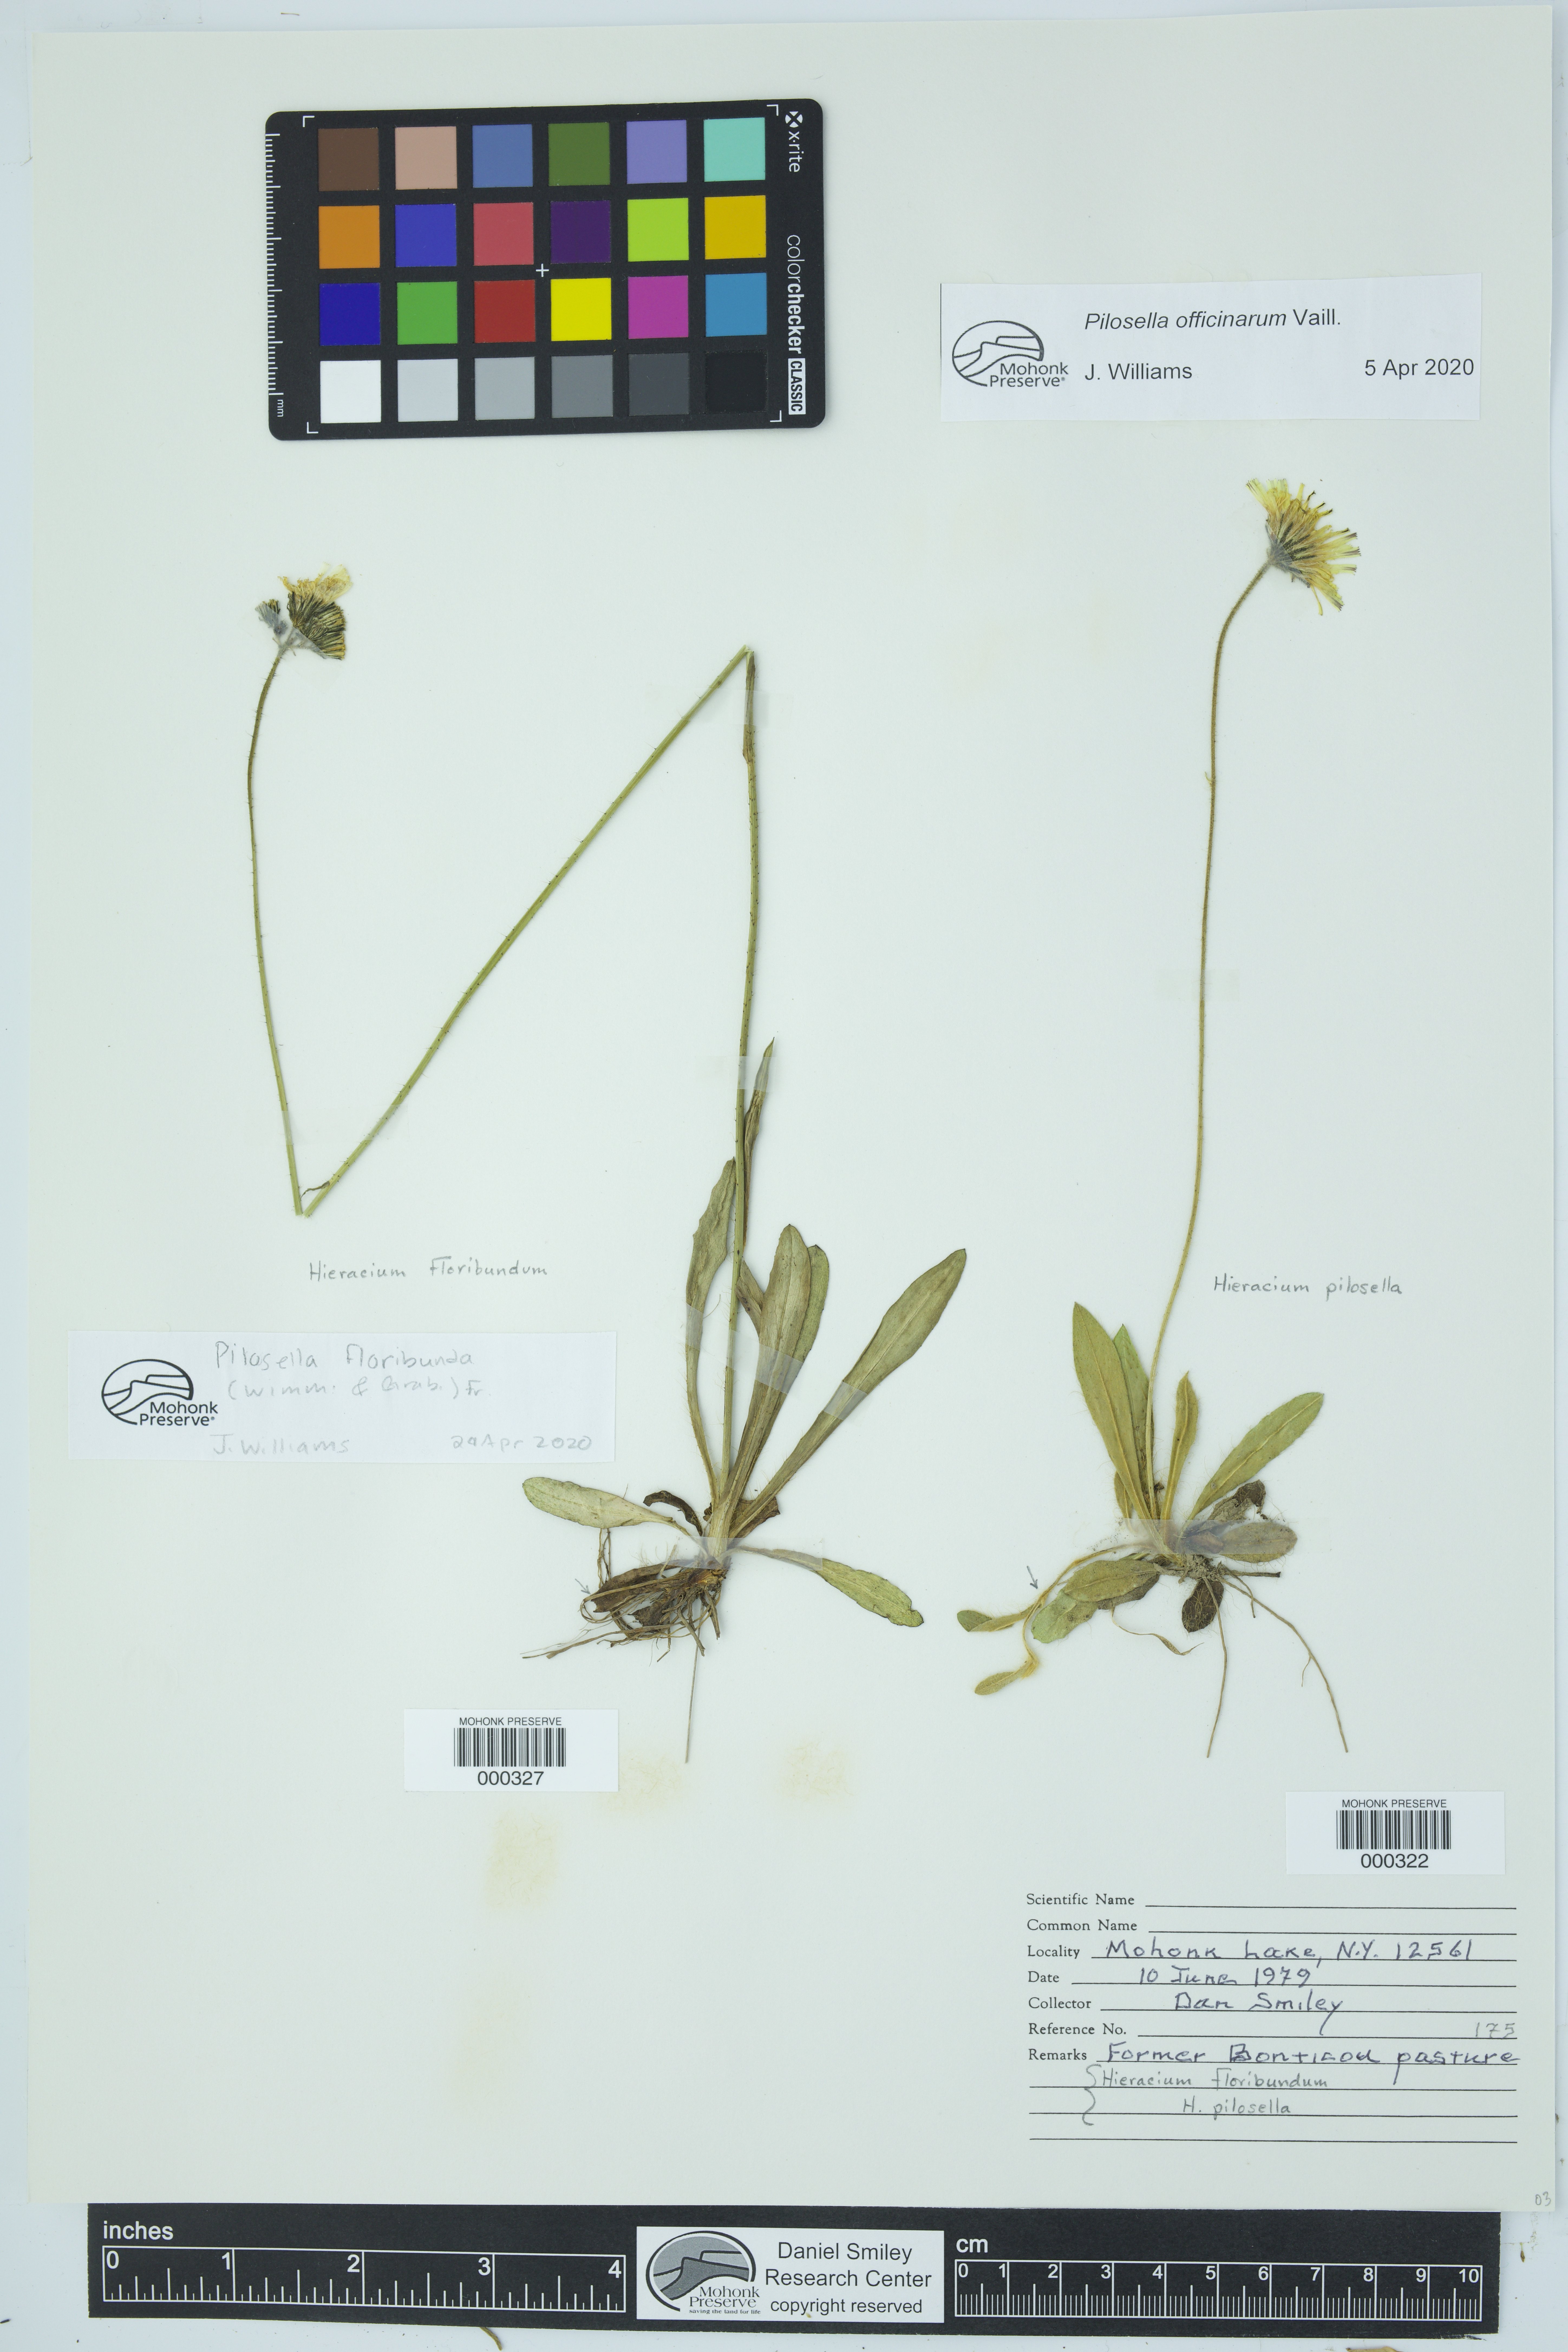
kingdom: Plantae
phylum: Tracheophyta
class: Magnoliopsida
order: Asterales
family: Asteraceae
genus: Pilosella
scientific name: Pilosella officinarum
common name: Mouse-ear hawkweed
